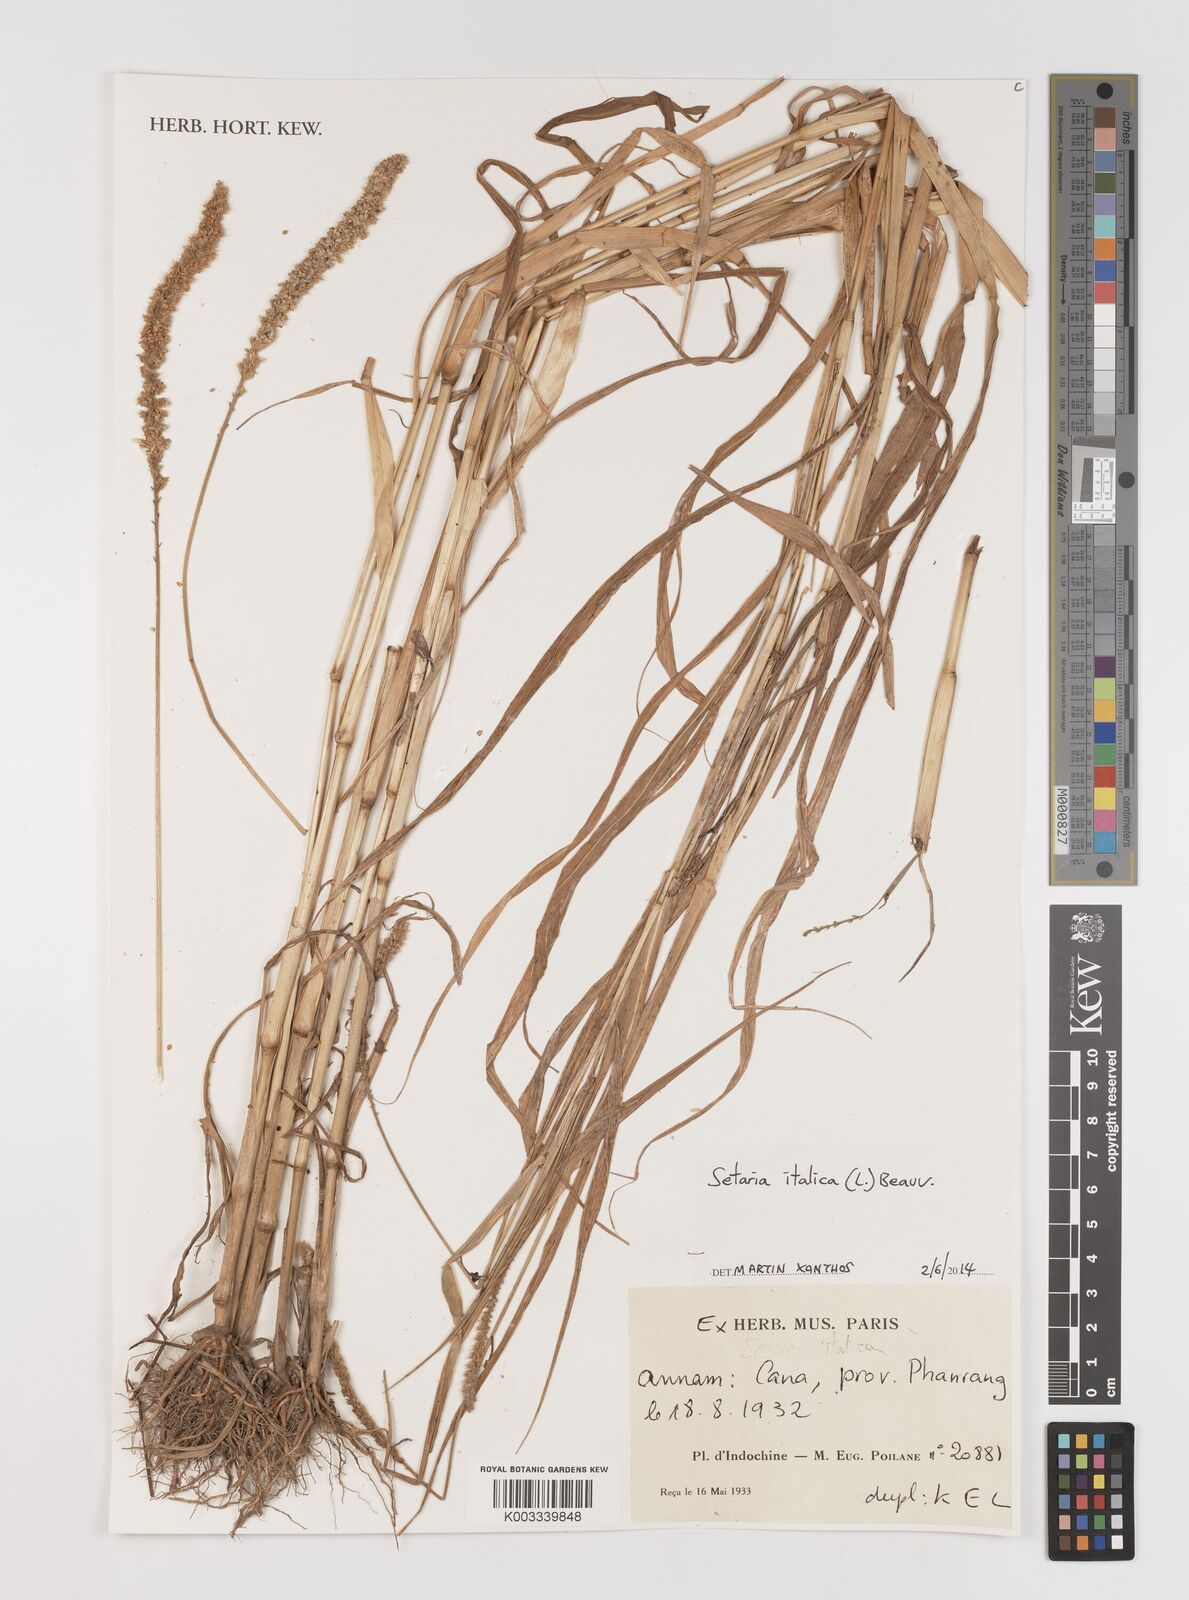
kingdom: Plantae
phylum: Tracheophyta
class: Liliopsida
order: Poales
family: Poaceae
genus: Setaria
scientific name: Setaria italica
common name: Foxtail bristle-grass
